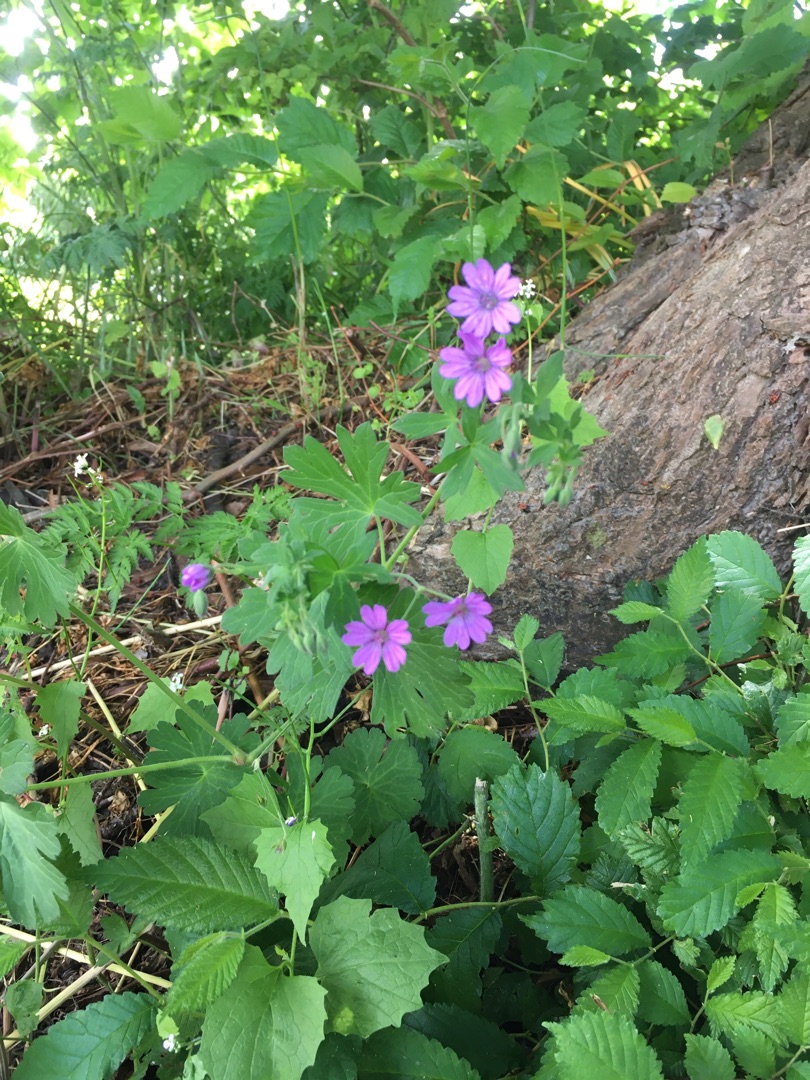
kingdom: Plantae
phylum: Tracheophyta
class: Magnoliopsida
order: Geraniales
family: Geraniaceae
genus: Geranium
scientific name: Geranium pyrenaicum
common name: Pyrenæisk storkenæb
